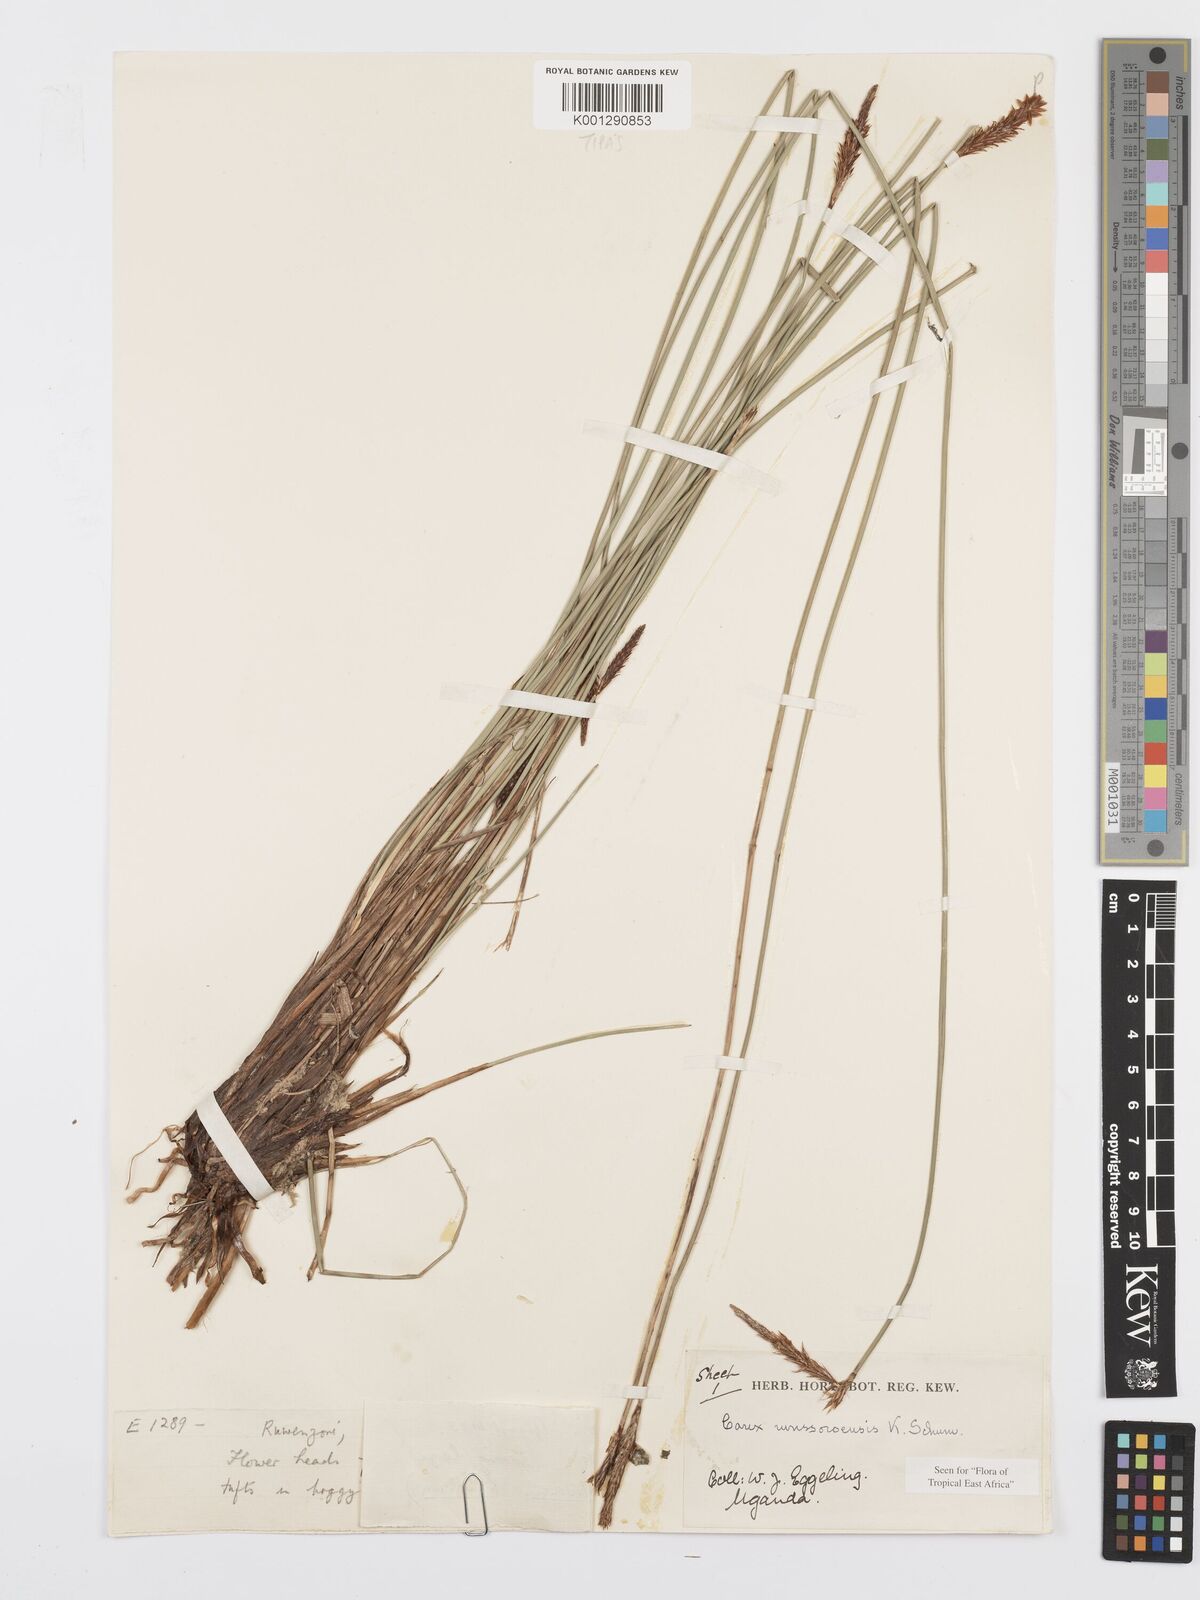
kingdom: Plantae
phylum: Tracheophyta
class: Liliopsida
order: Poales
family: Cyperaceae
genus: Carex
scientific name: Carex runssoroensis
